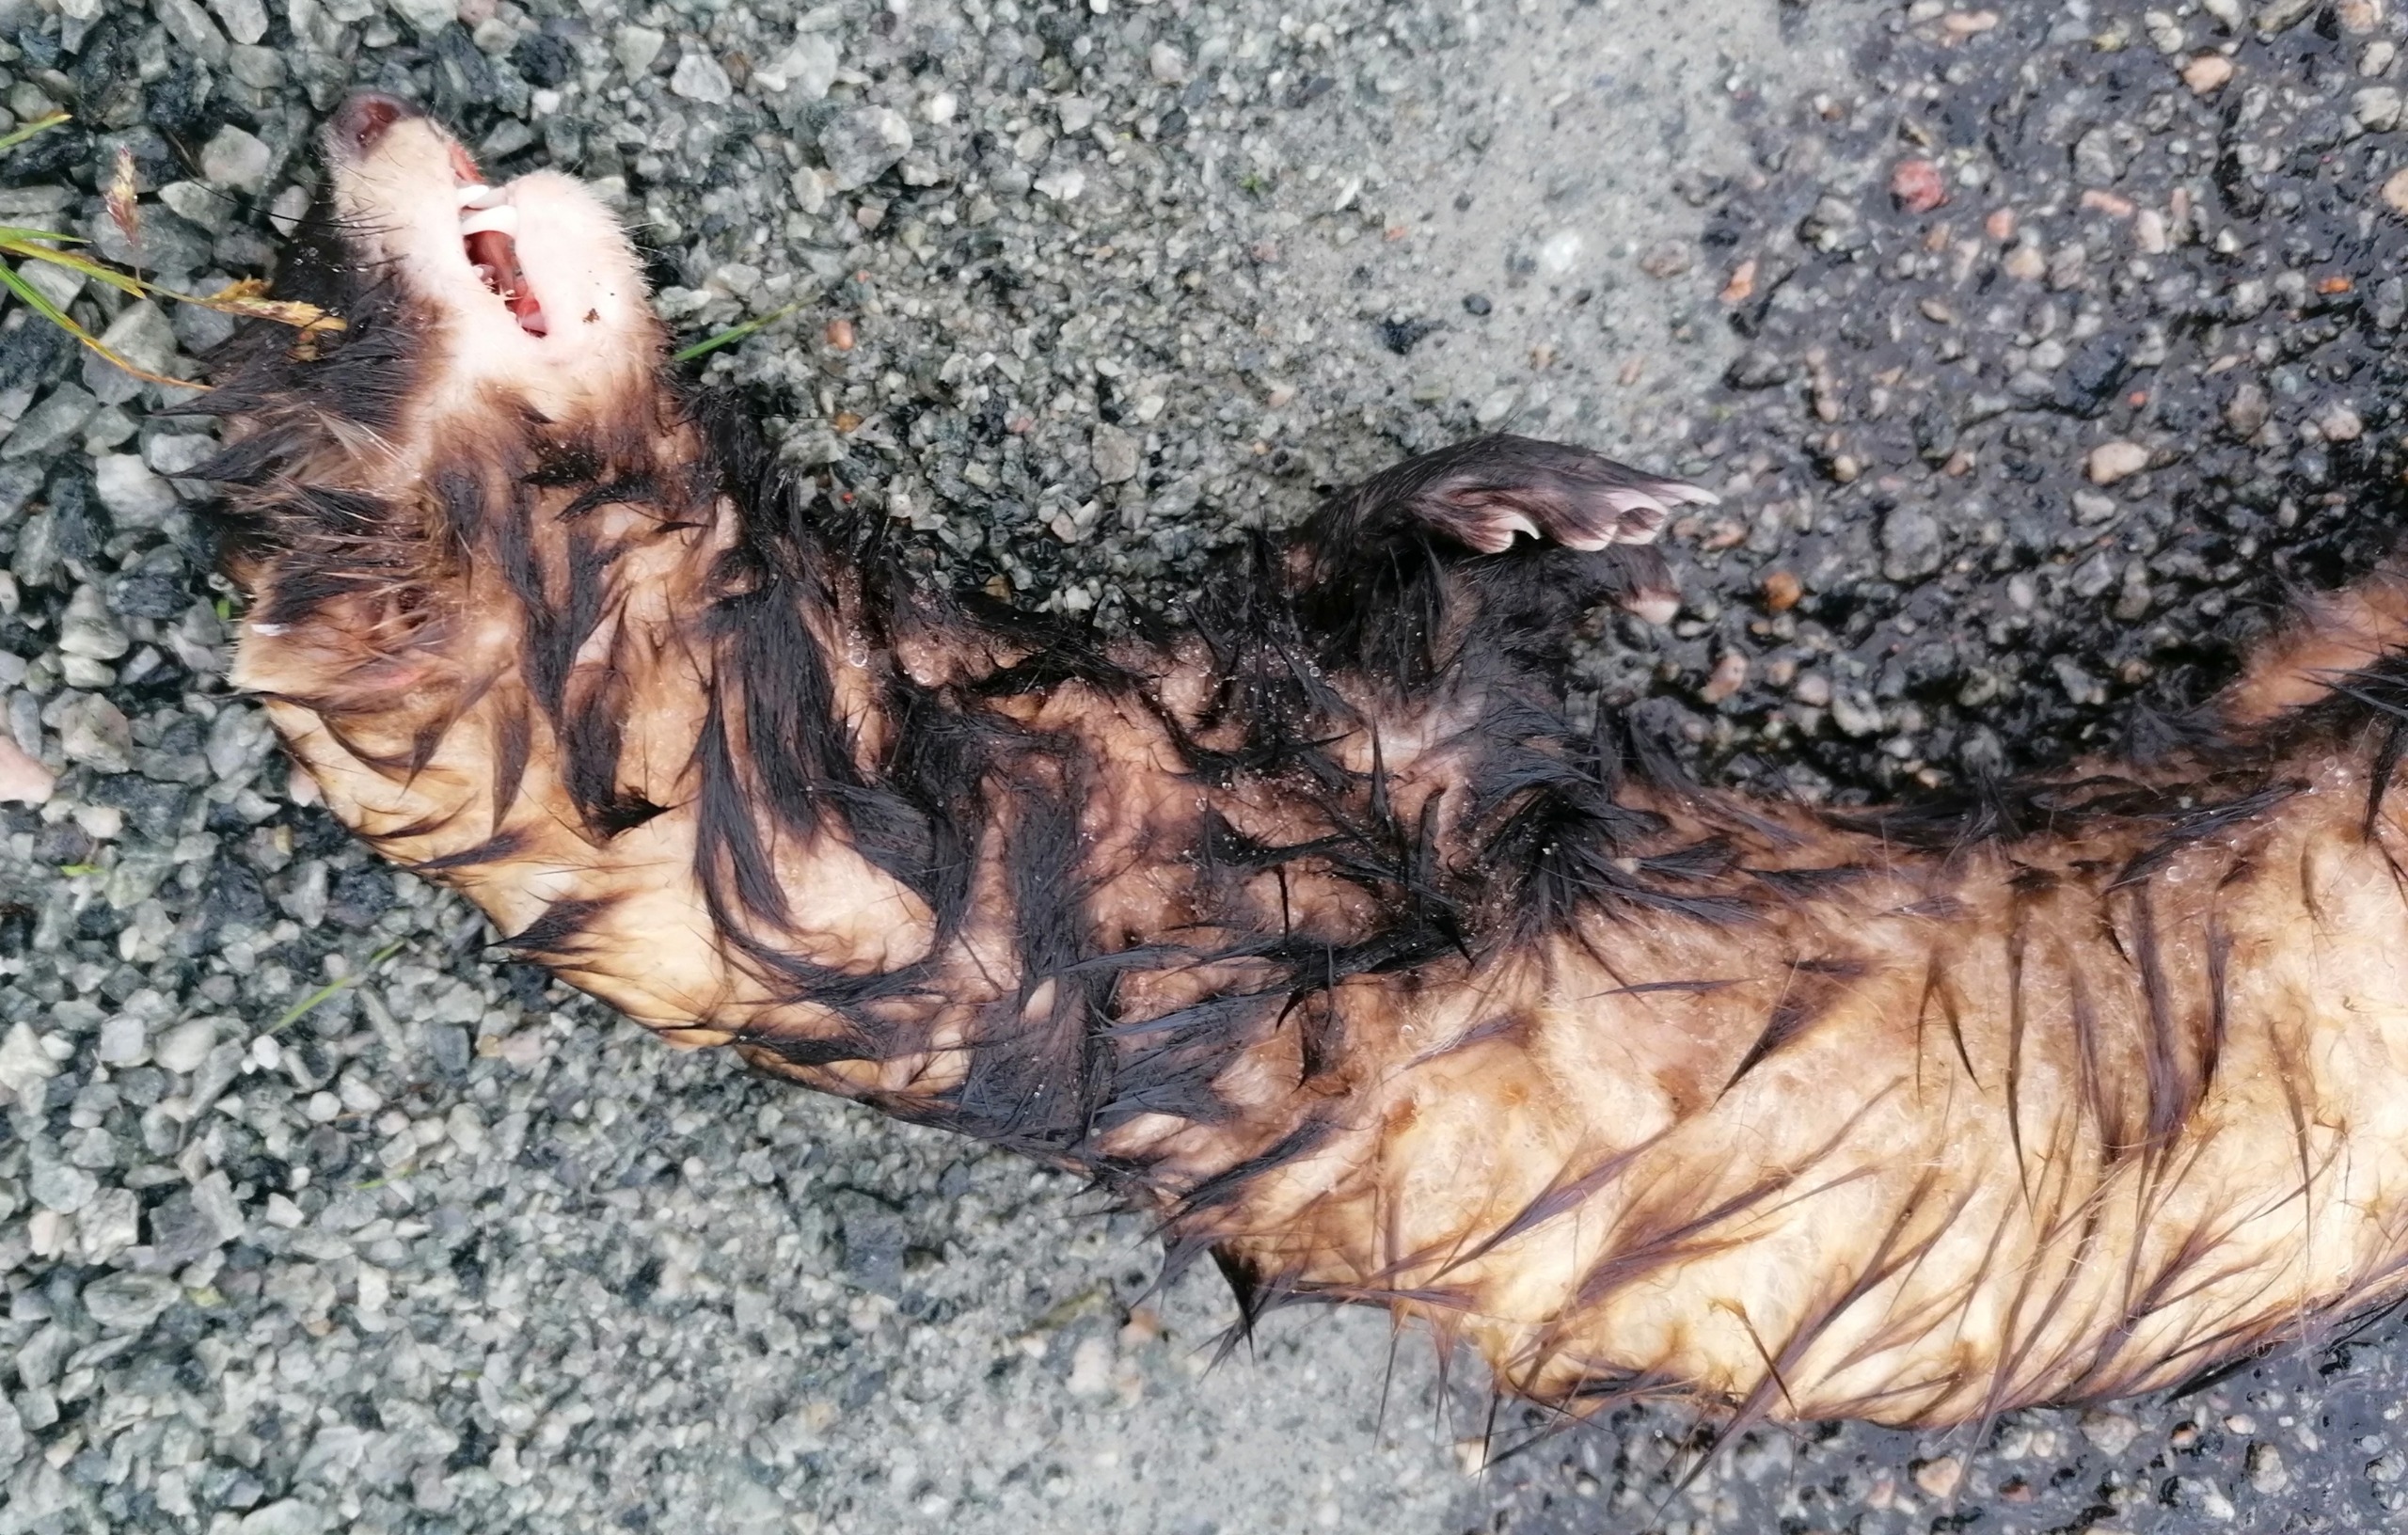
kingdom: Animalia
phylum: Chordata
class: Mammalia
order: Carnivora
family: Mustelidae
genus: Mustela
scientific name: Mustela putorius
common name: Ilder
